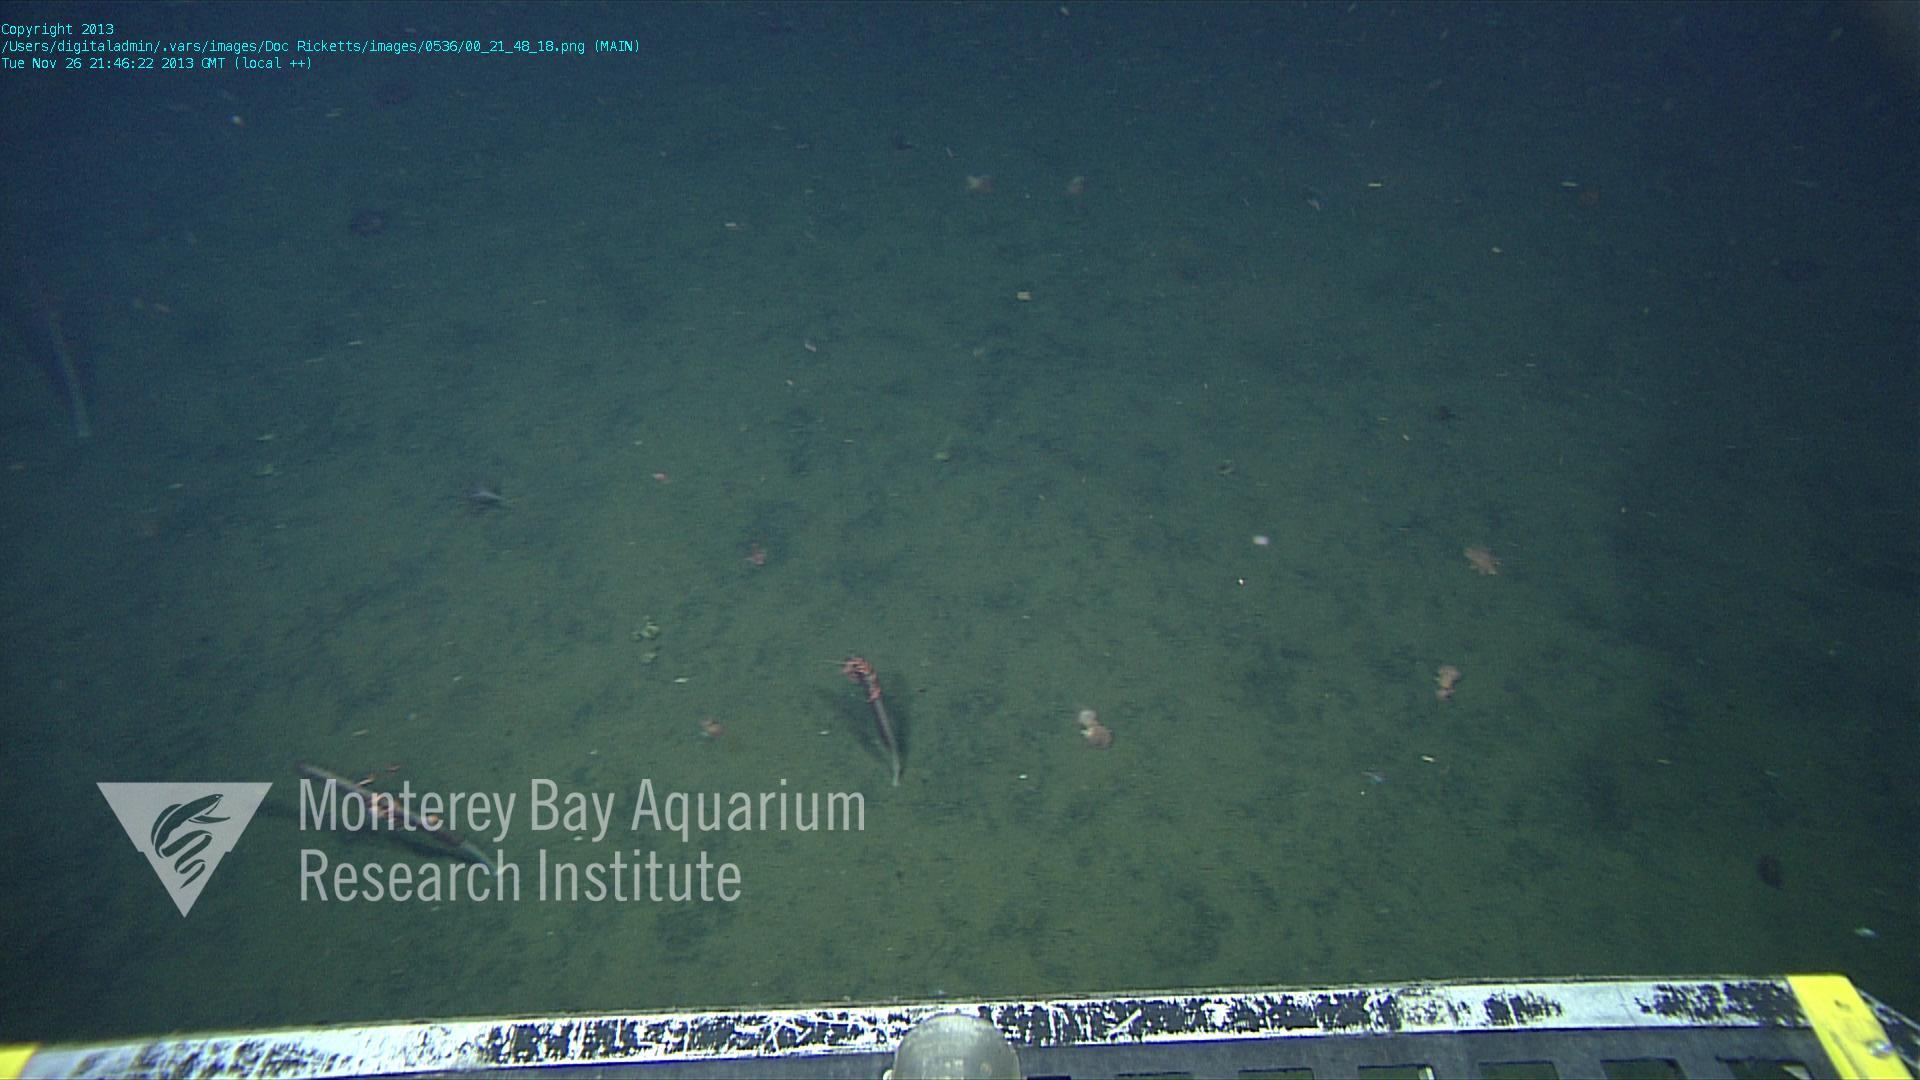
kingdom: Animalia
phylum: Cnidaria
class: Anthozoa
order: Scleralcyonacea
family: Funiculinidae
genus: Funiculina
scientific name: Funiculina
